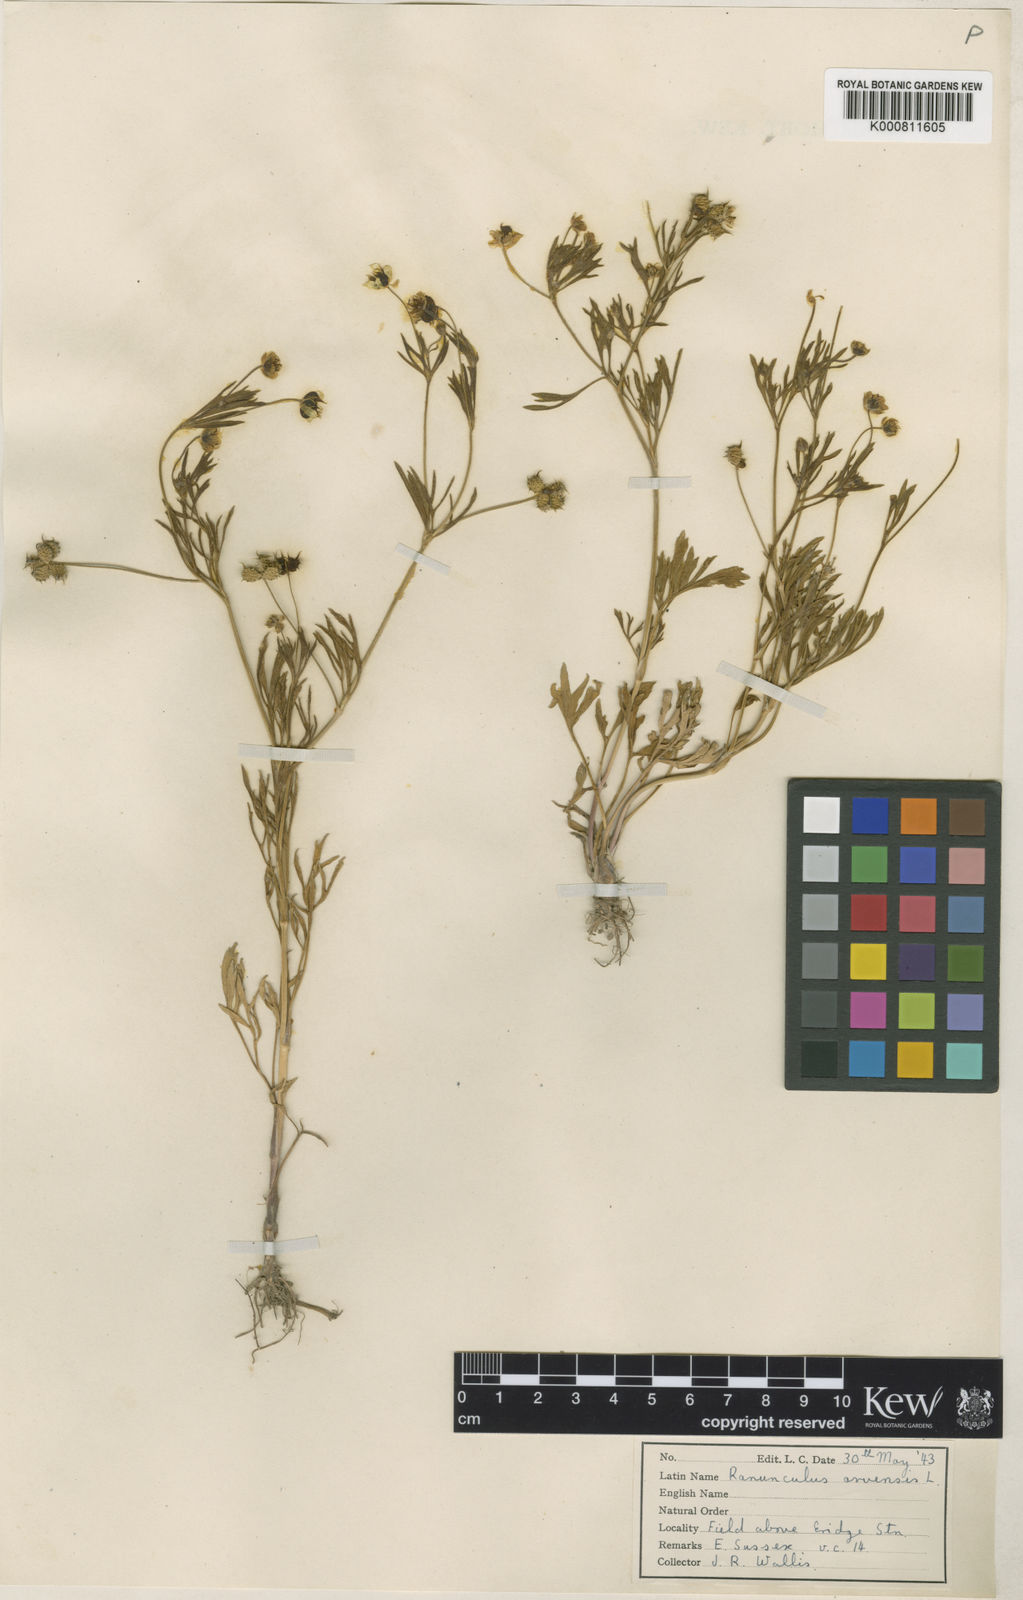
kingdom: Plantae
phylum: Tracheophyta
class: Magnoliopsida
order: Ranunculales
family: Ranunculaceae
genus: Ranunculus
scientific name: Ranunculus arvensis
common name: Corn buttercup
